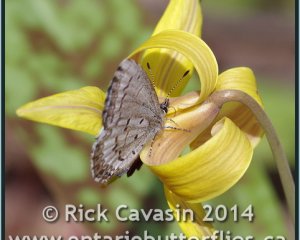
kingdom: Animalia
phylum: Arthropoda
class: Insecta
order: Lepidoptera
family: Lycaenidae
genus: Celastrina
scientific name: Celastrina lucia
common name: Northern Spring Azure
